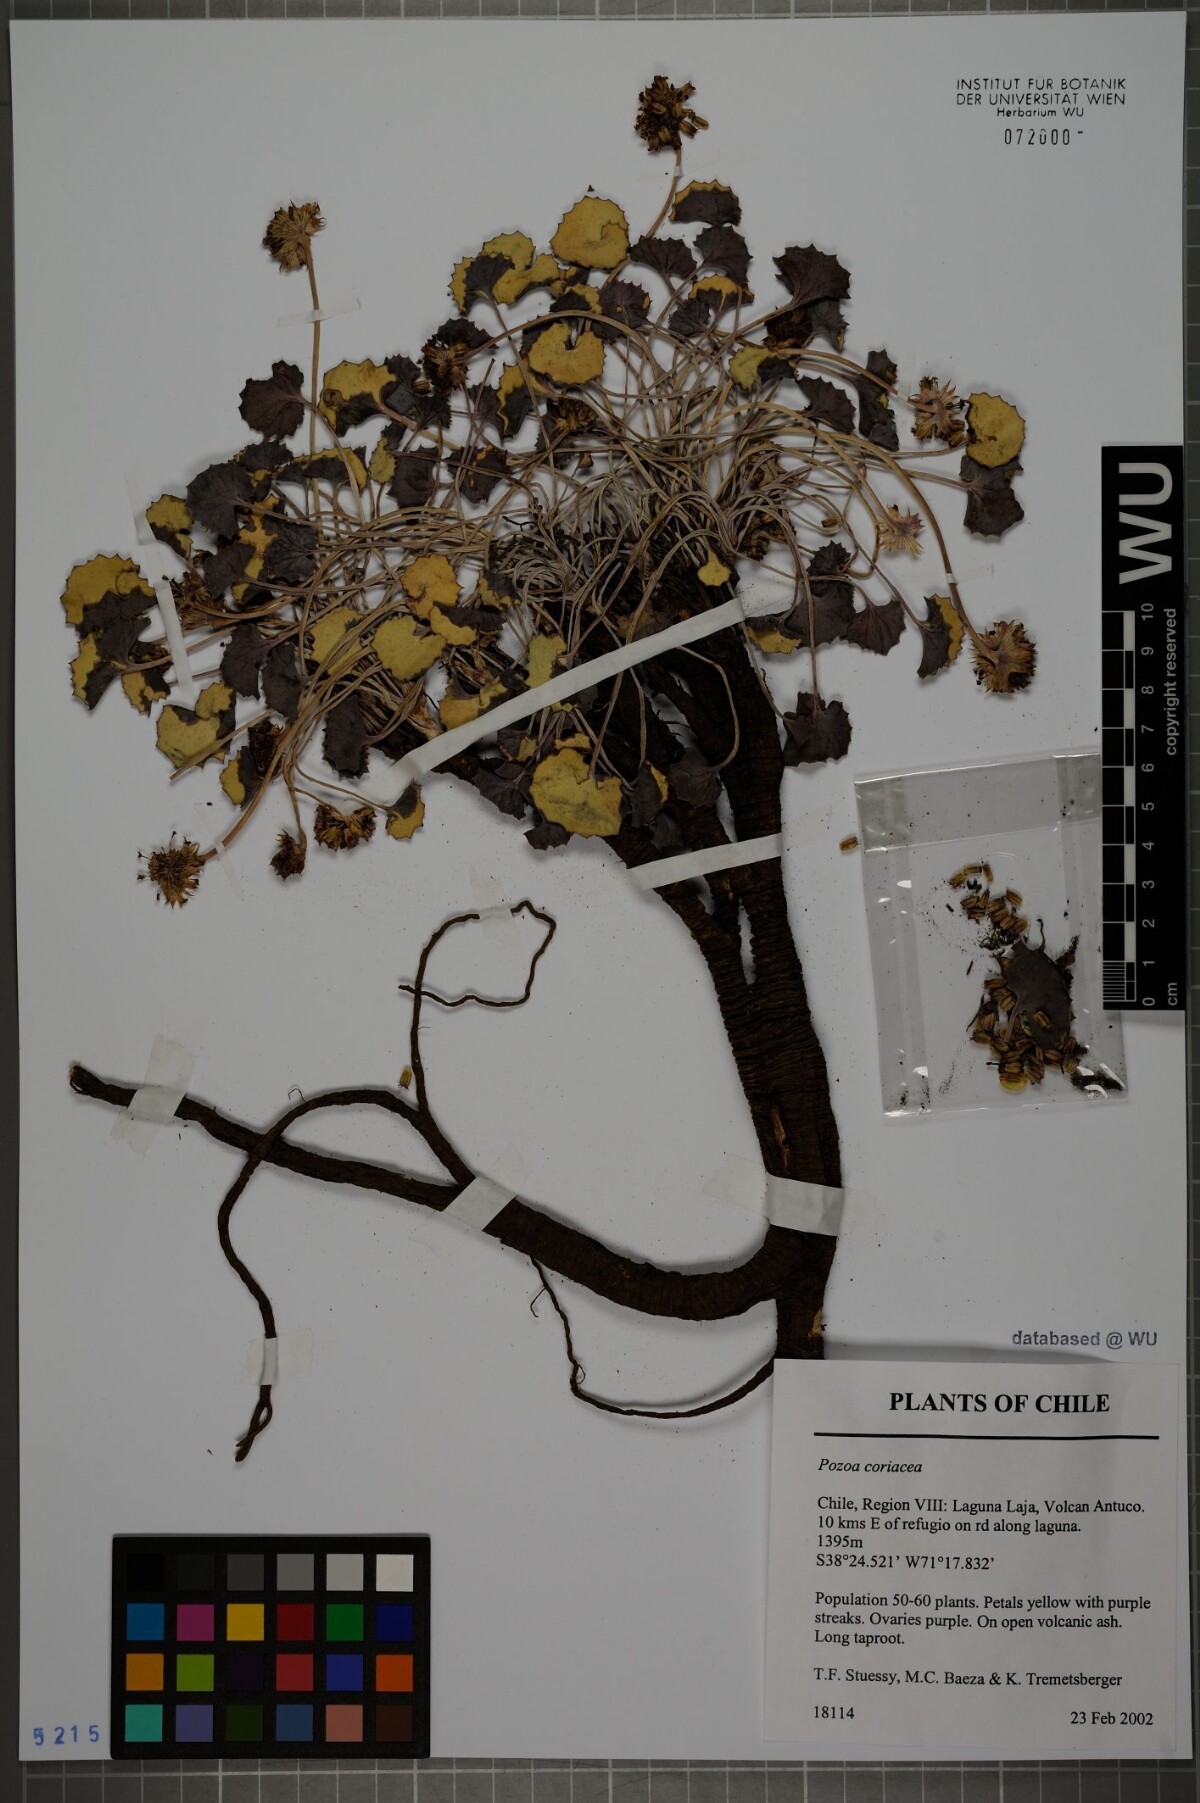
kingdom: Plantae
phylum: Tracheophyta
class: Magnoliopsida
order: Apiales
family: Apiaceae
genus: Pozoa
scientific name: Pozoa coriacea
